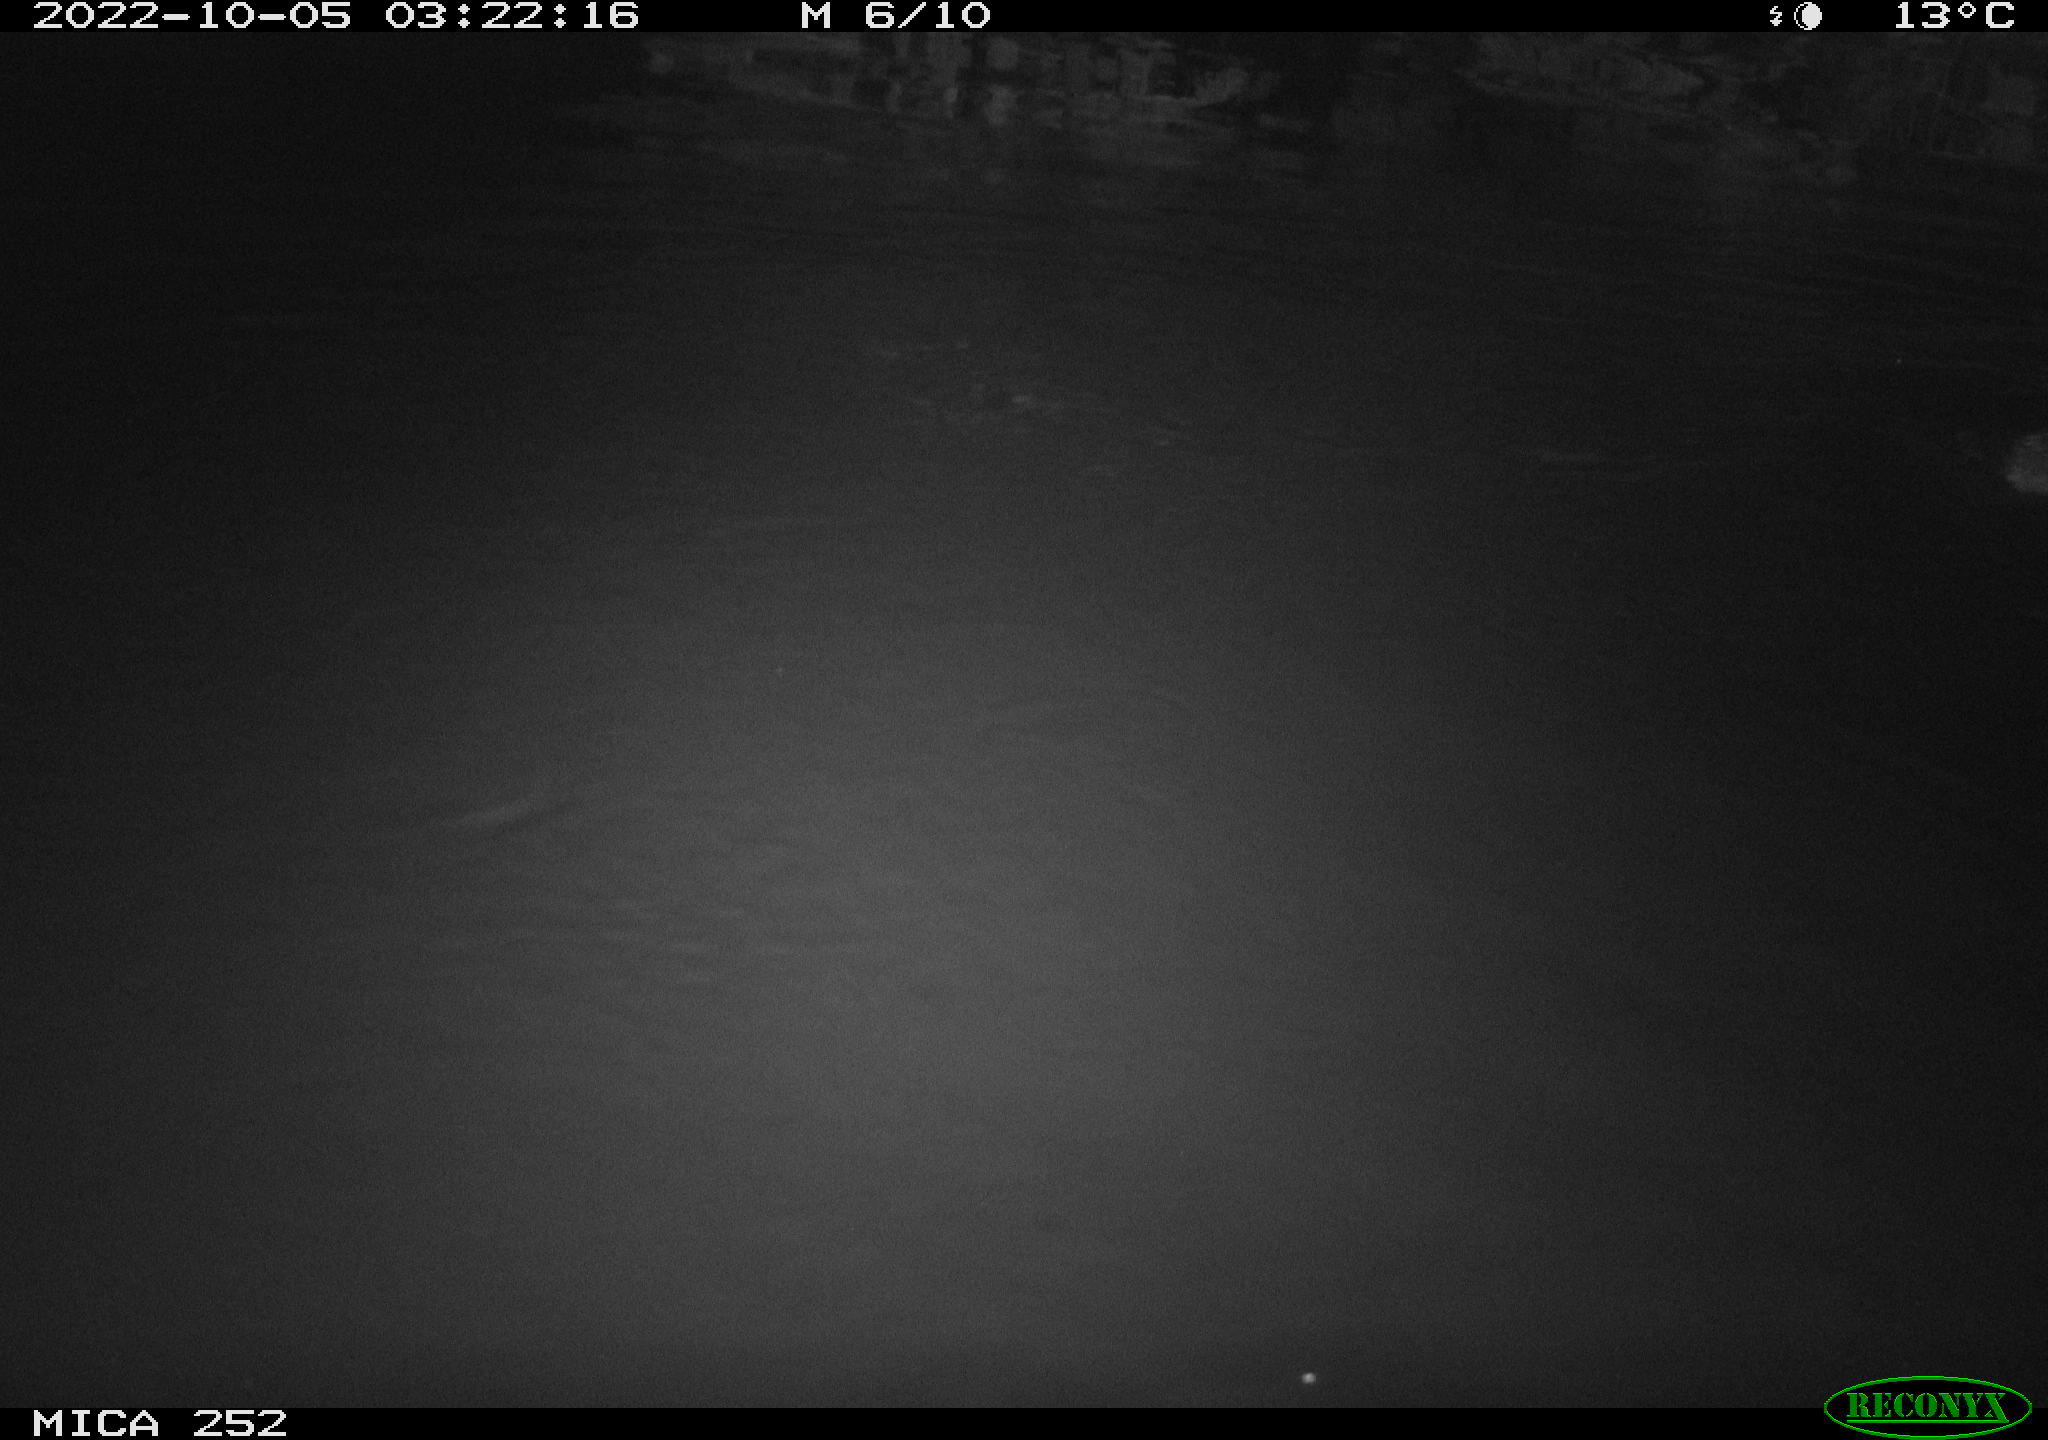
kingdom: Animalia
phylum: Chordata
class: Mammalia
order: Rodentia
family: Castoridae
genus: Castor
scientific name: Castor fiber
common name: Eurasian beaver
